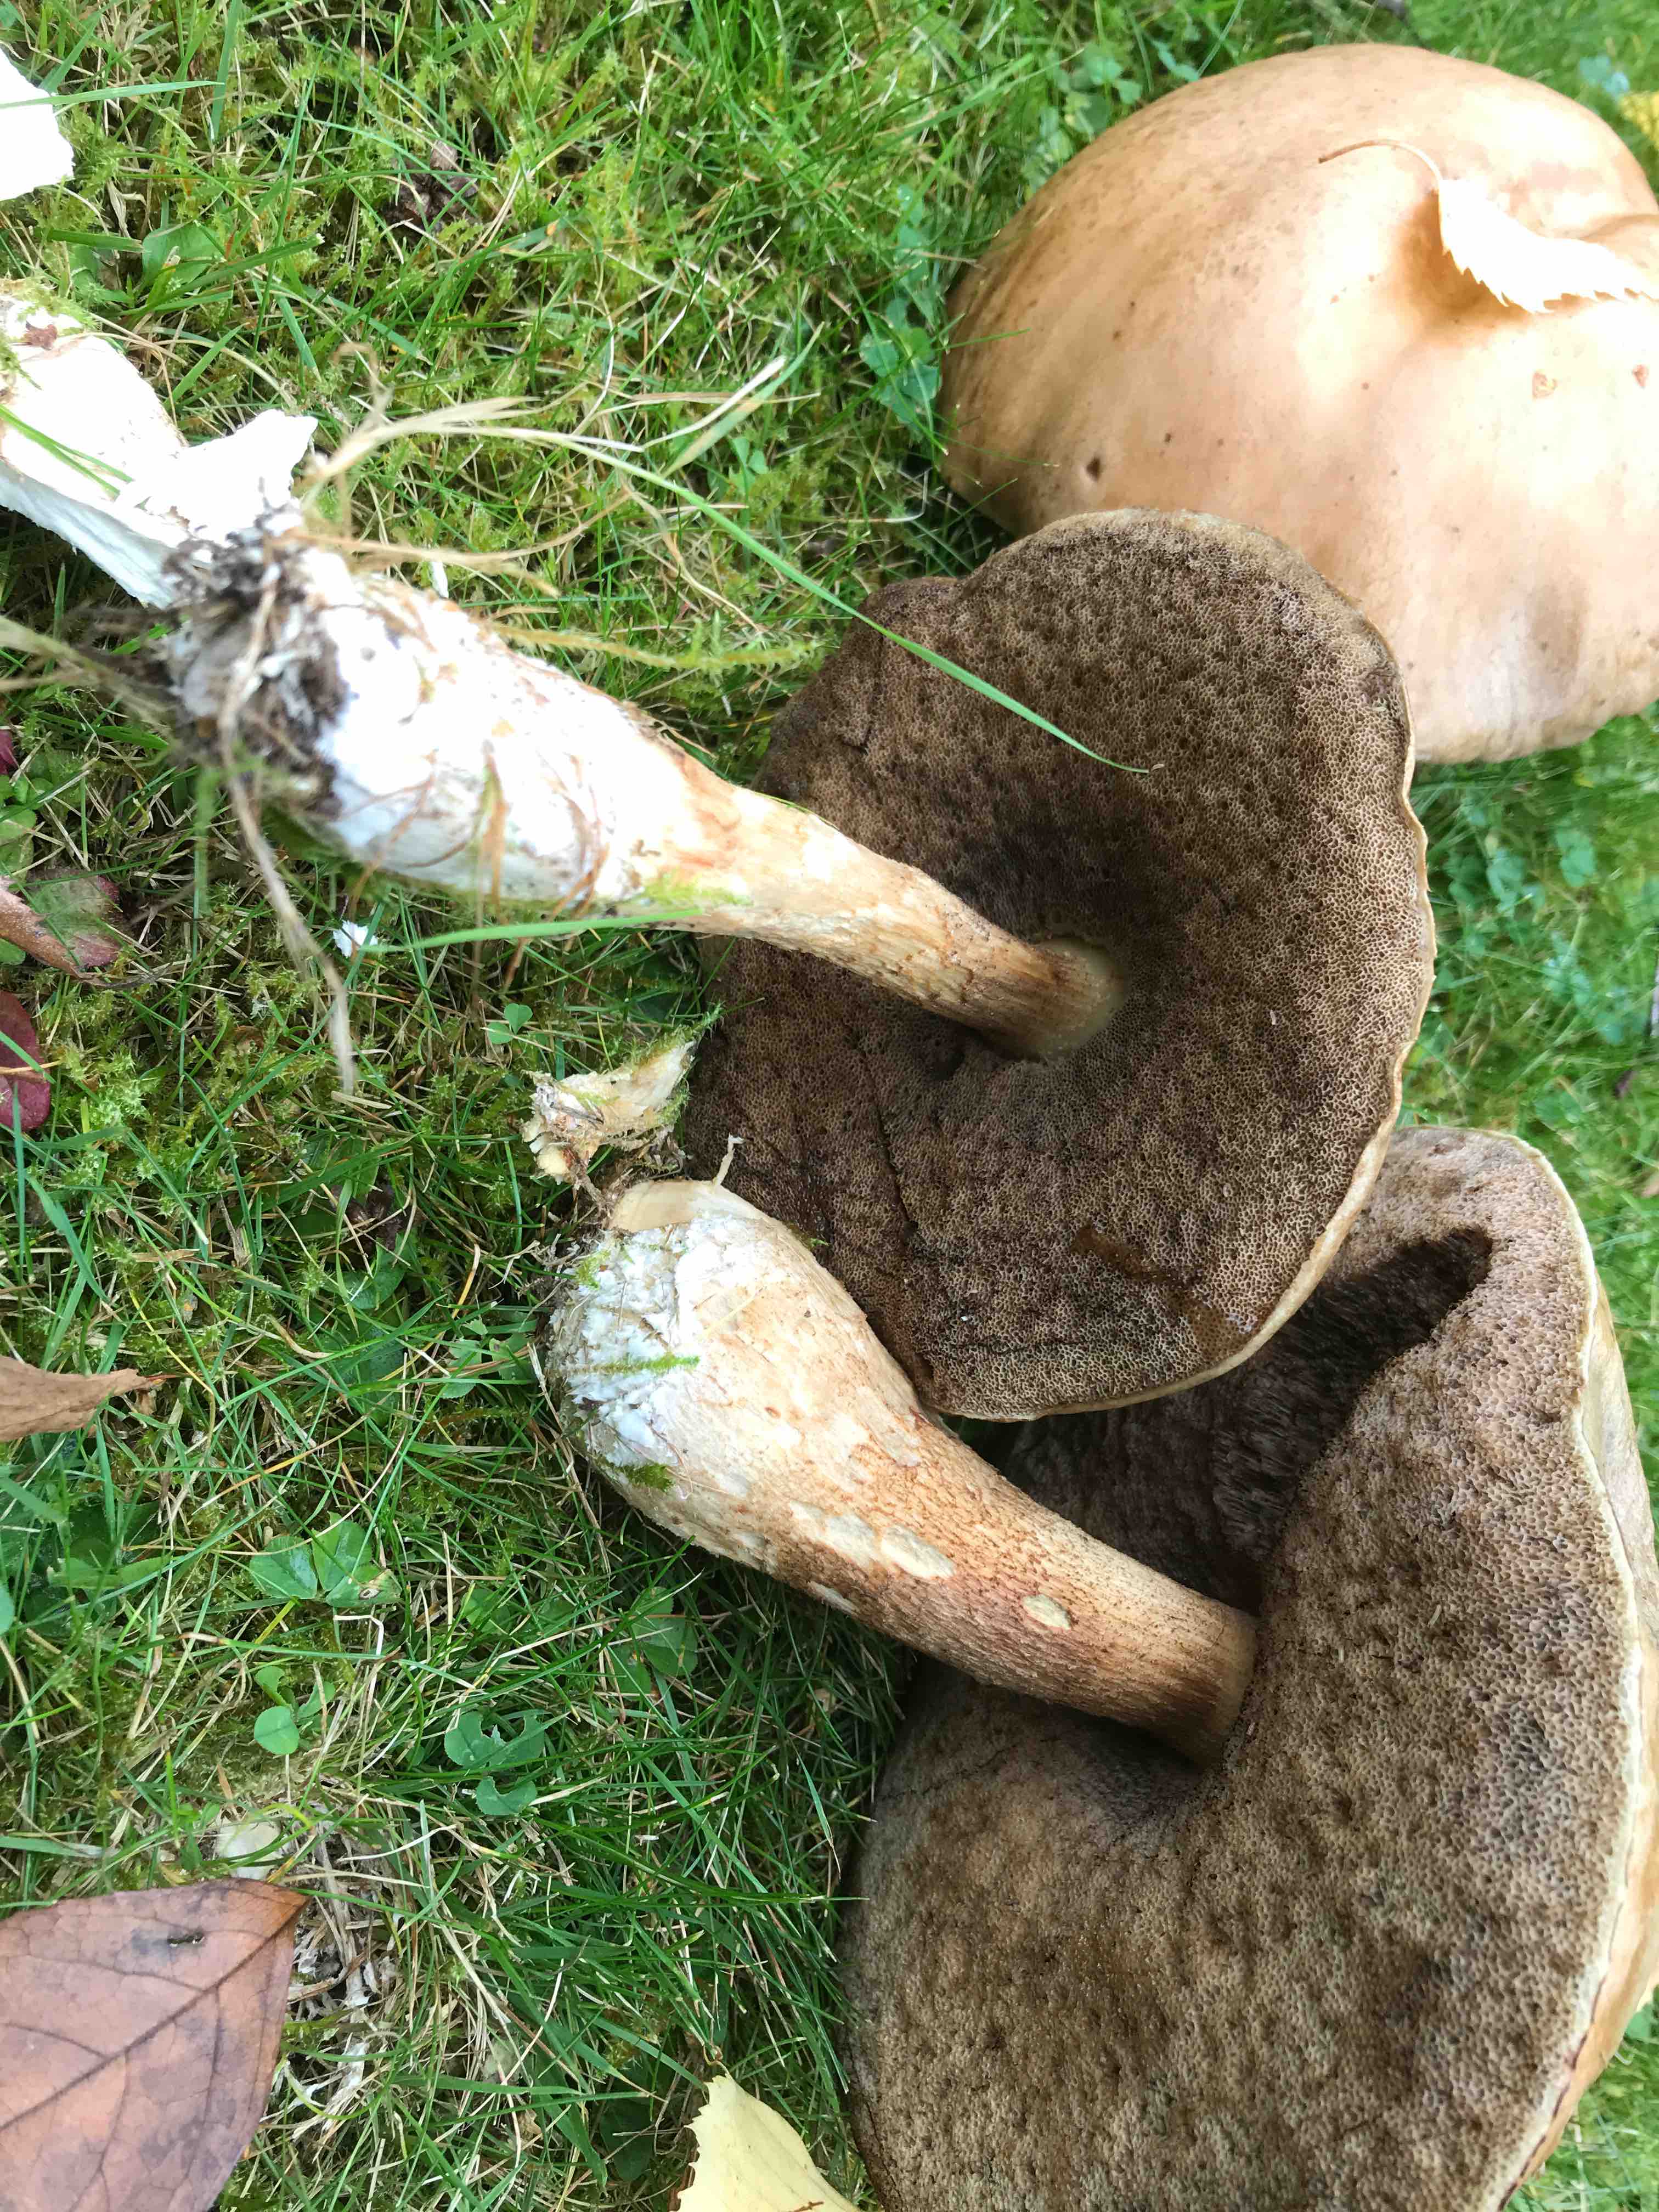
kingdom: Fungi
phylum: Basidiomycota
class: Agaricomycetes
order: Boletales
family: Boletaceae
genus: Leccinum
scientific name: Leccinum
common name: skælrørhat
